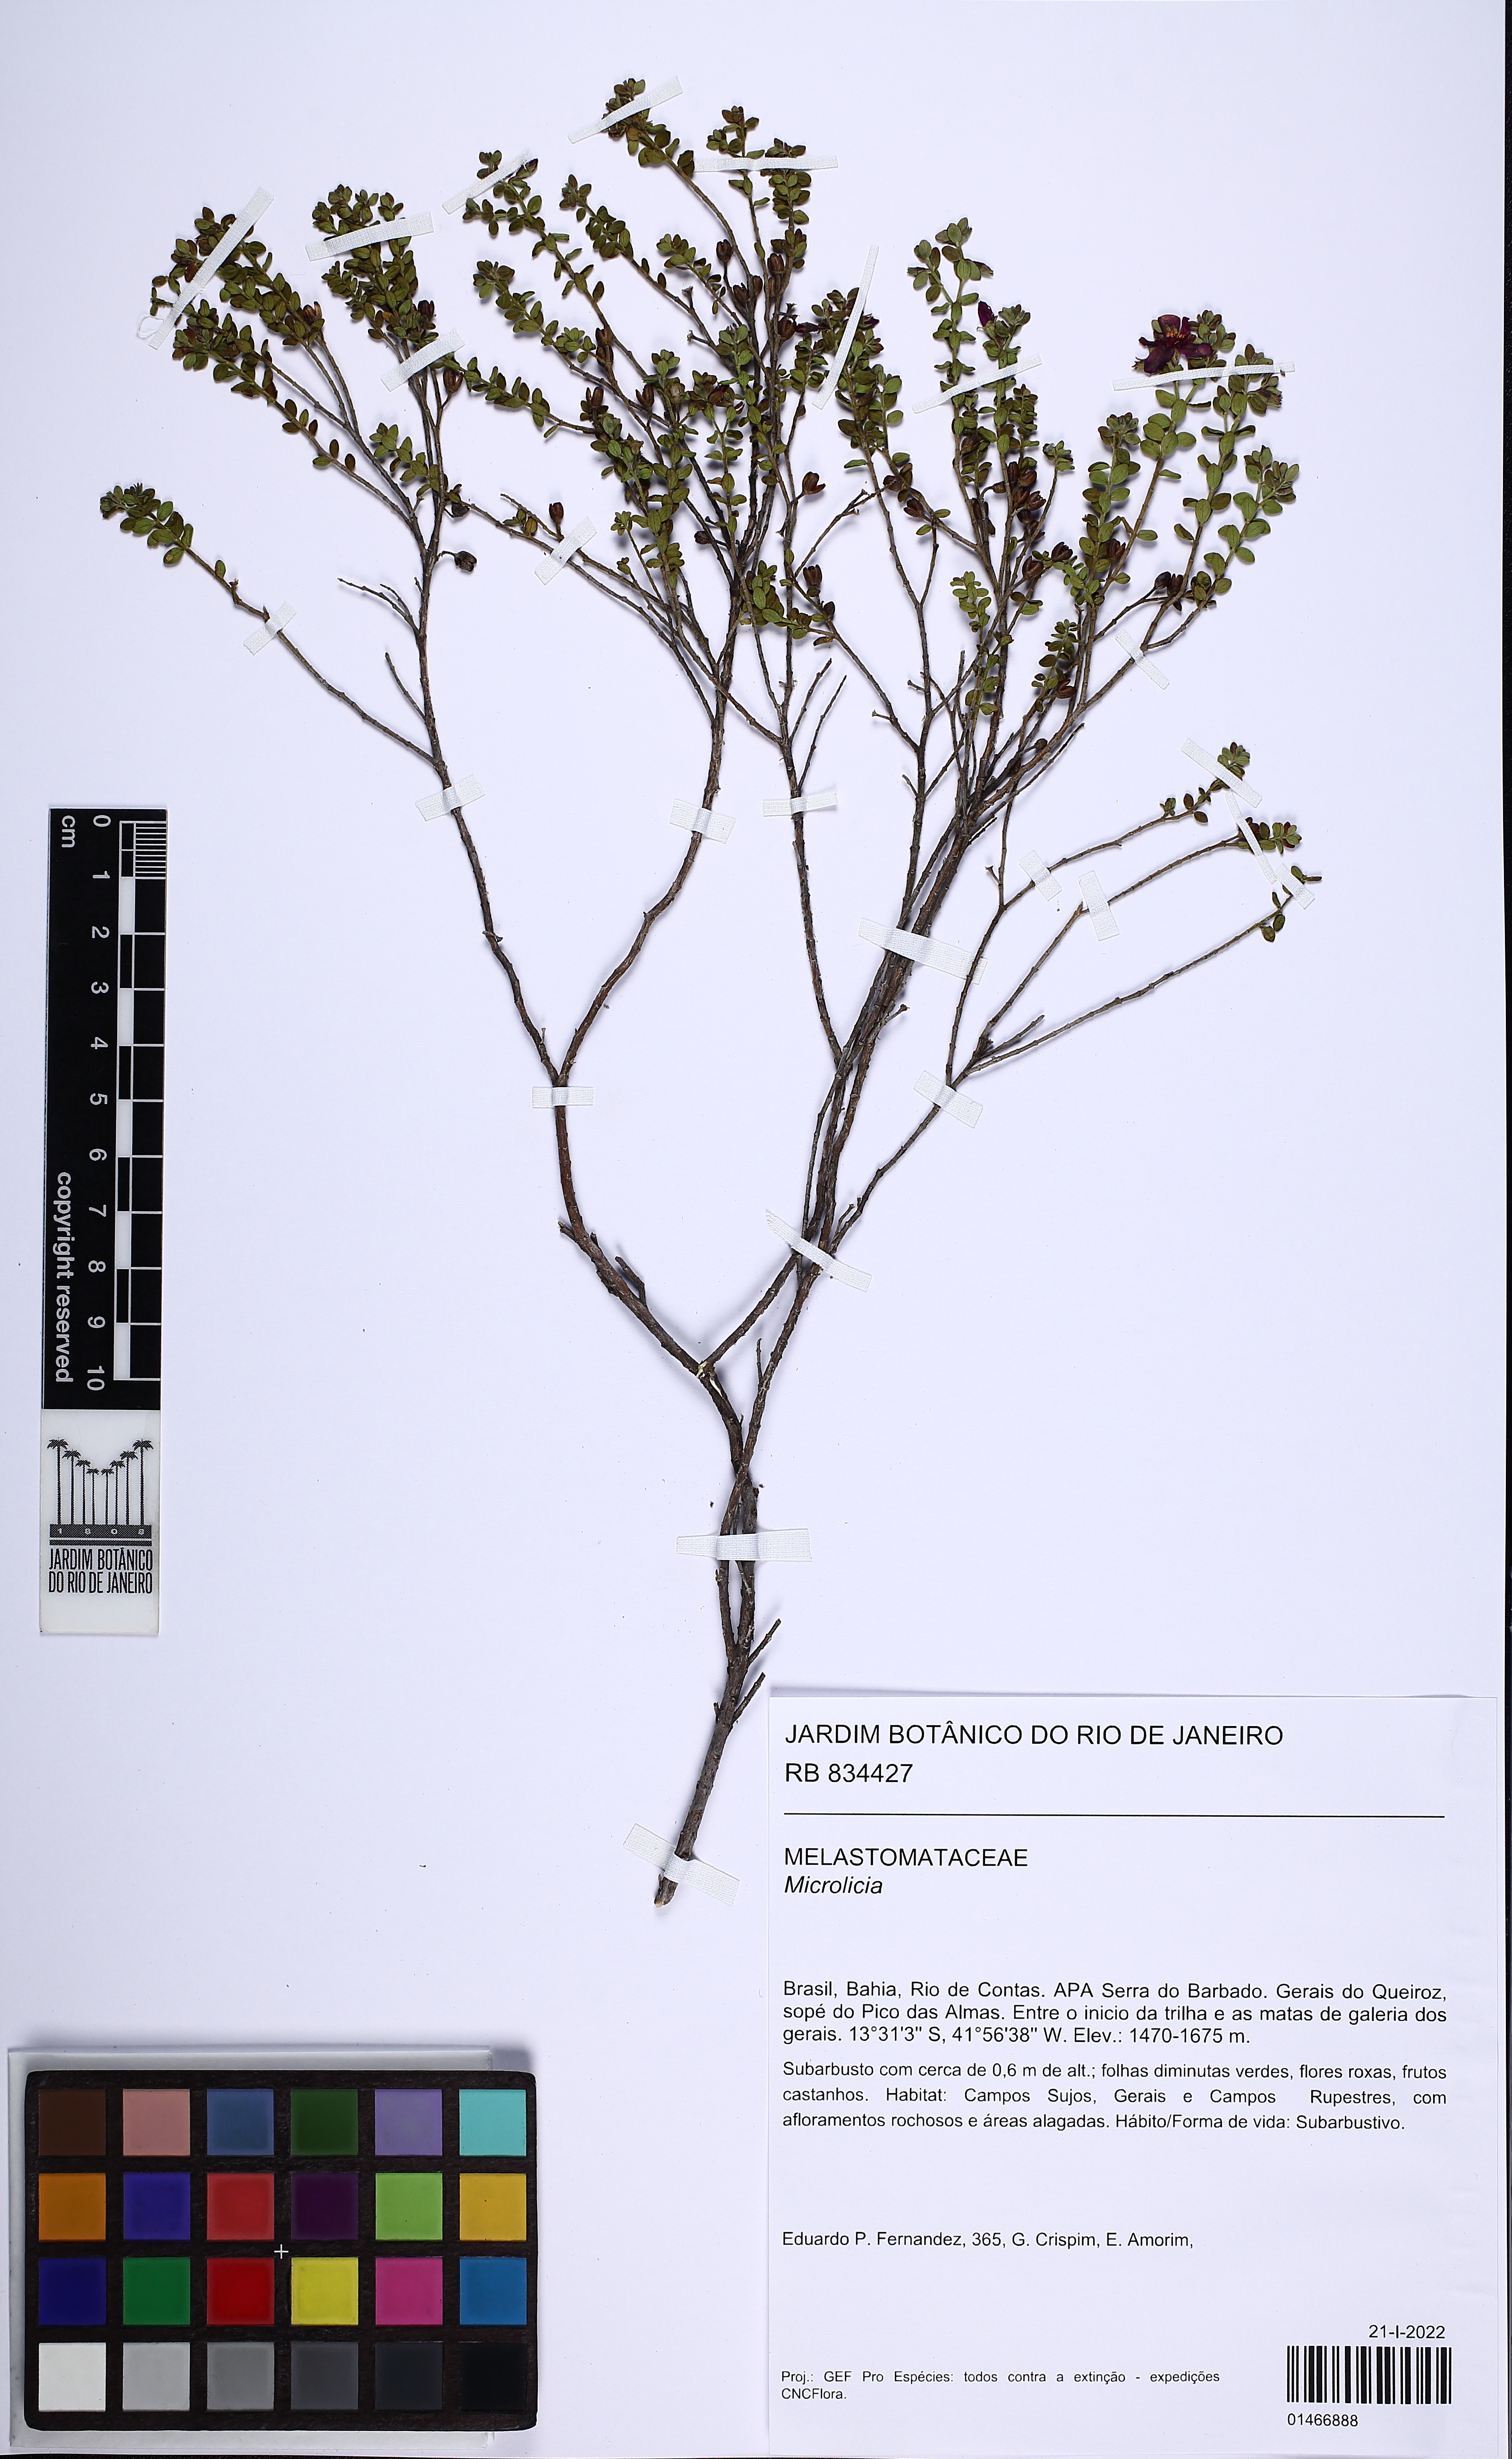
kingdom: Plantae
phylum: Tracheophyta
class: Magnoliopsida
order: Myrtales
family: Melastomataceae
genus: Microlicia
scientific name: Microlicia fulva
